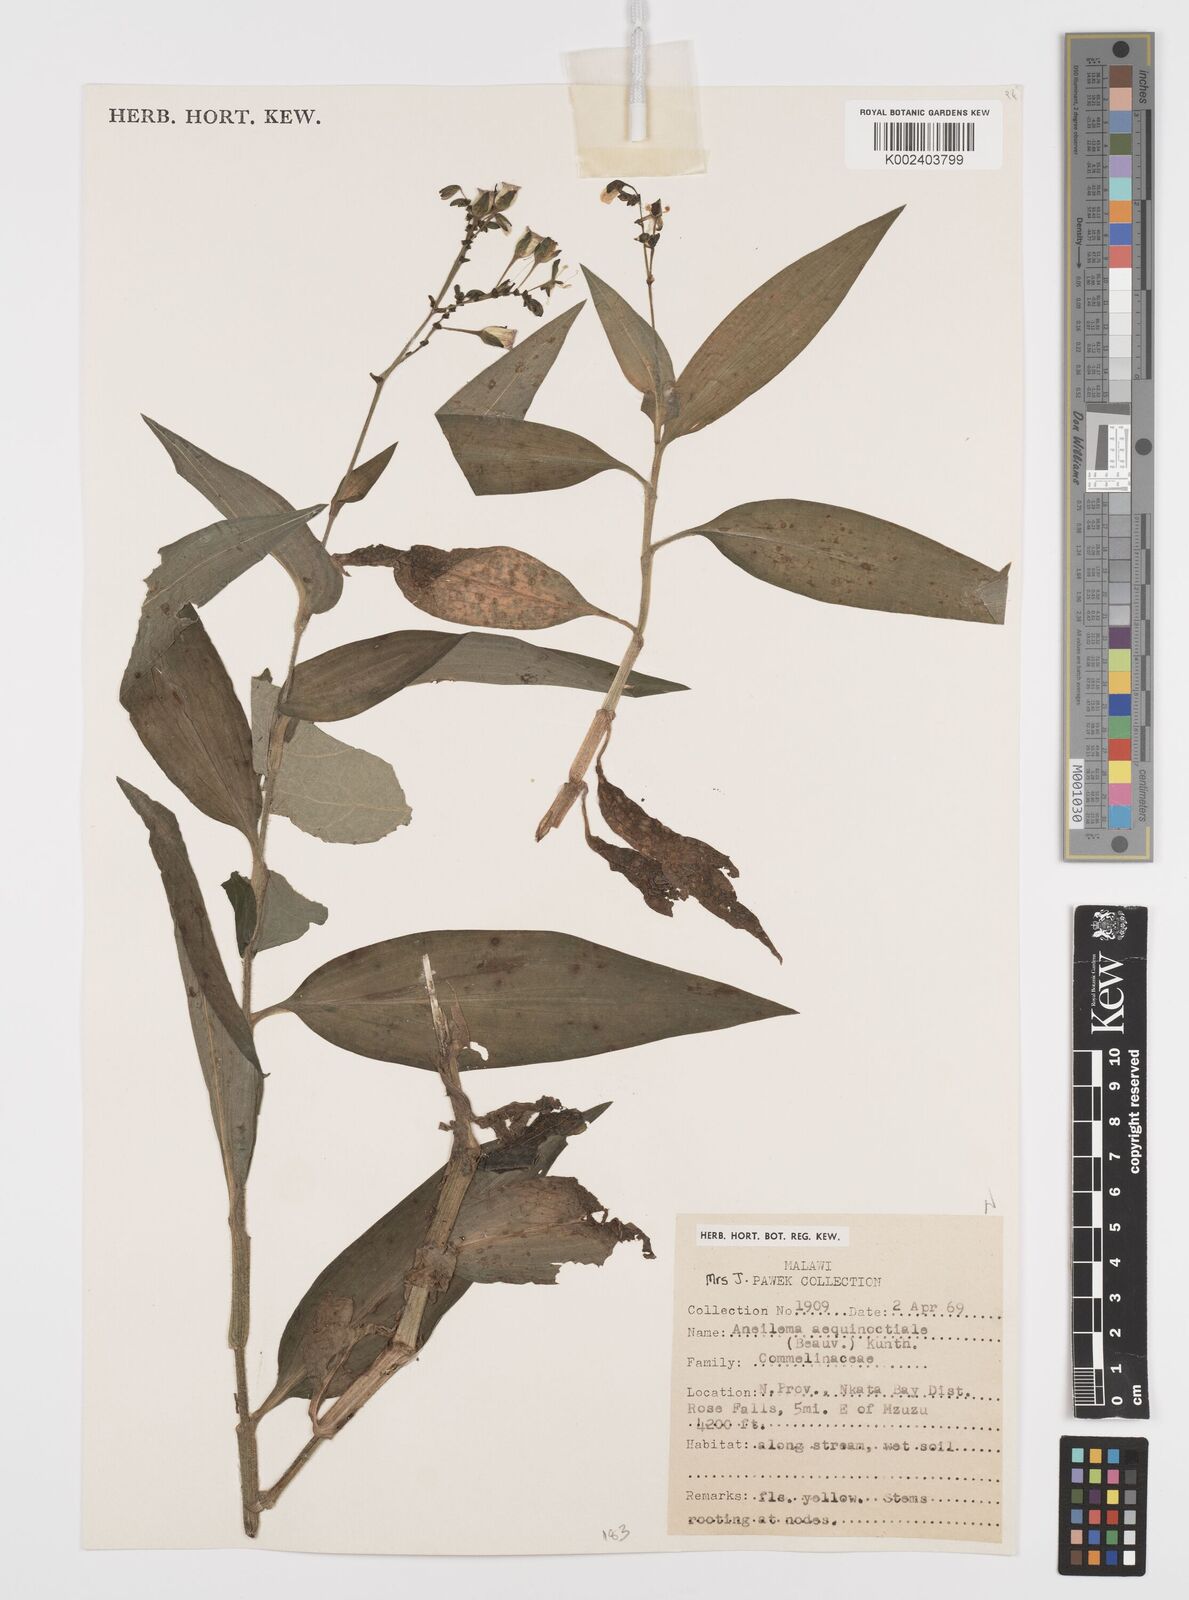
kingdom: Plantae
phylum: Tracheophyta
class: Liliopsida
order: Commelinales
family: Commelinaceae
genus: Aneilema
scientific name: Aneilema aequinoctiale
